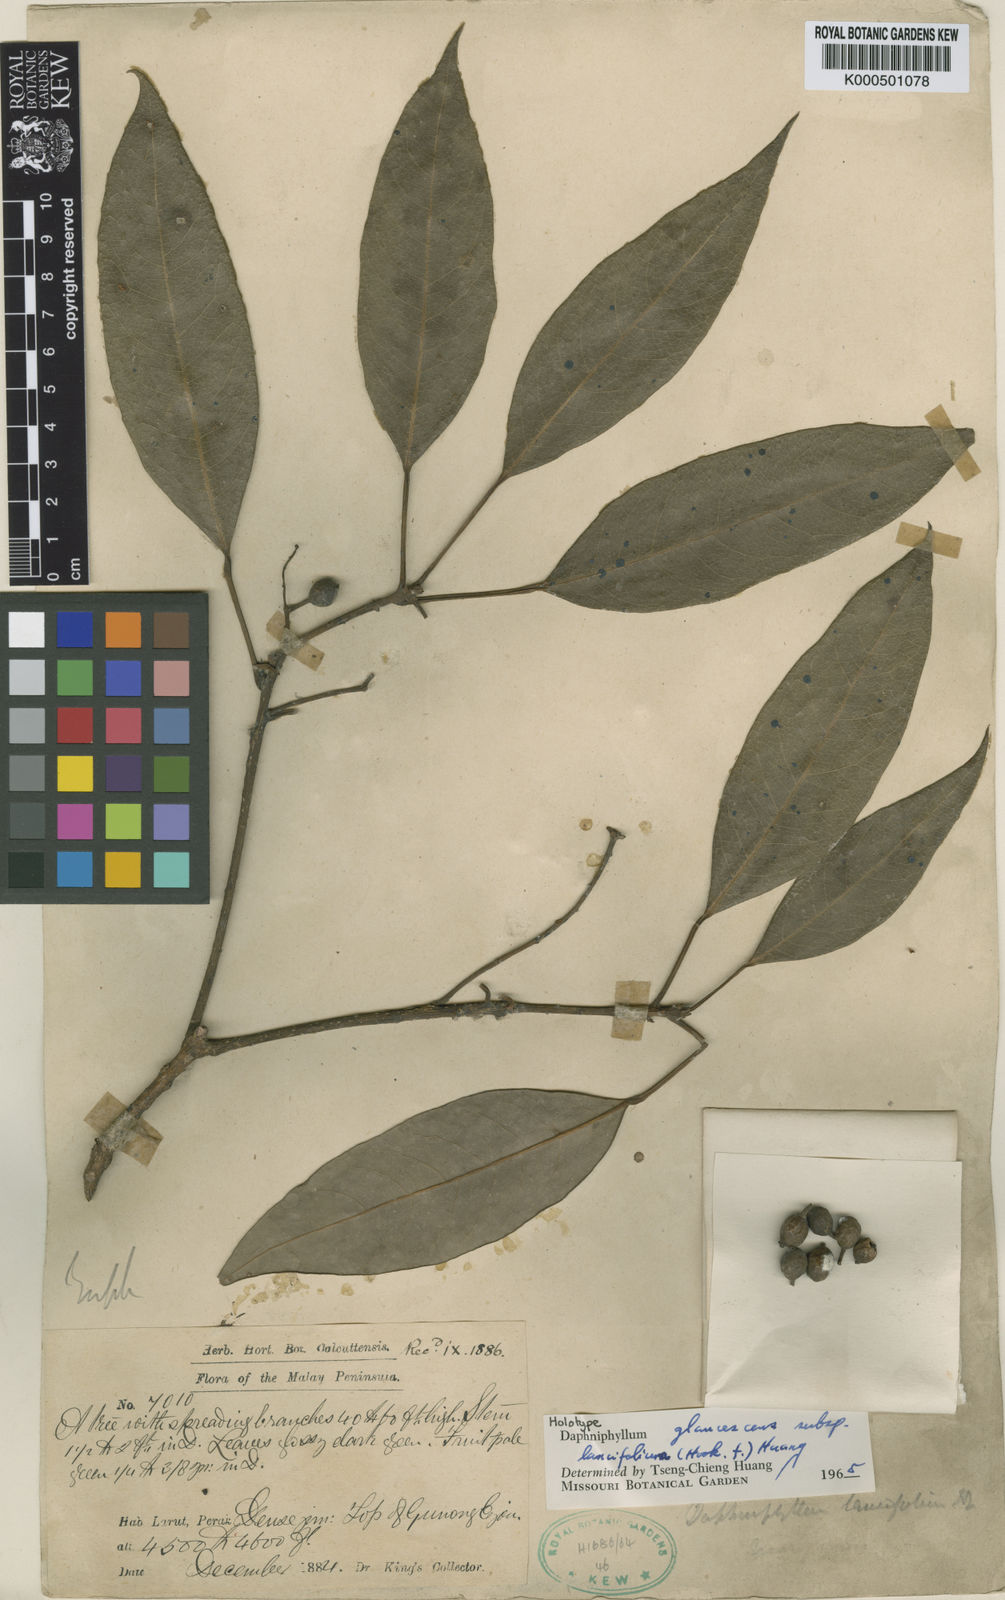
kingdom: Plantae
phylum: Tracheophyta
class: Magnoliopsida
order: Saxifragales
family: Daphniphyllaceae
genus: Daphniphyllum
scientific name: Daphniphyllum glaucescens
